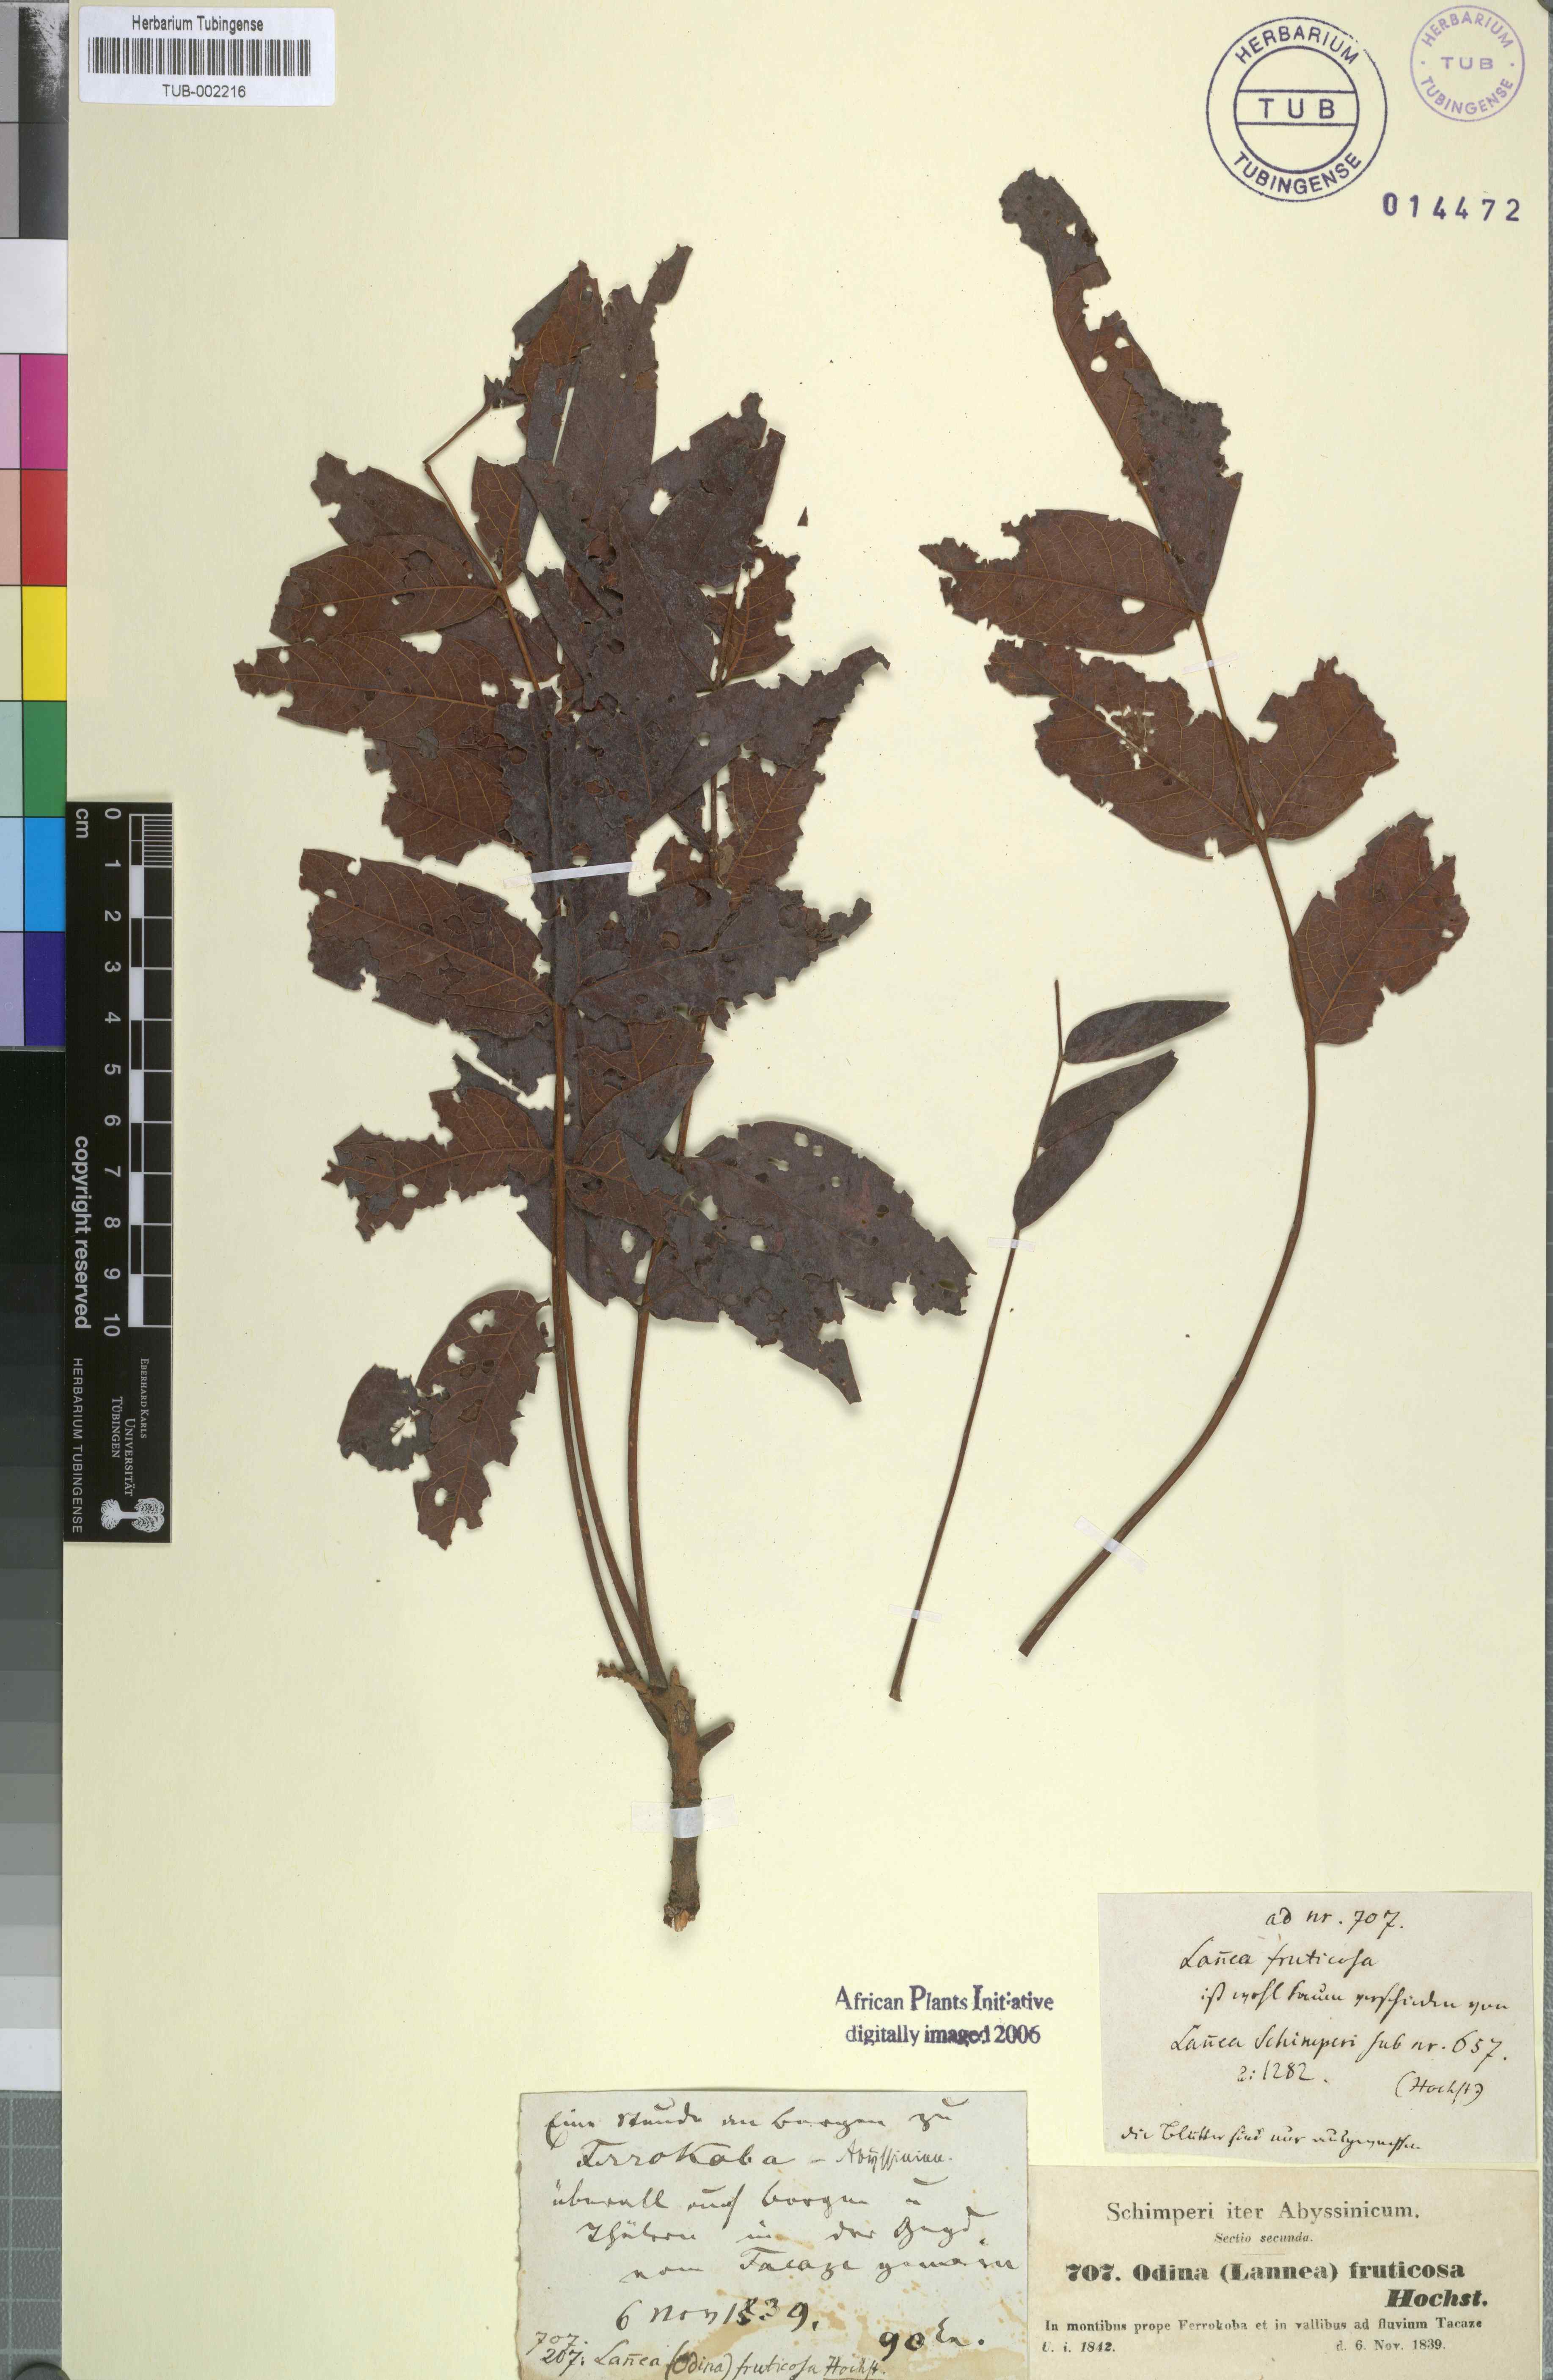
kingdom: Plantae
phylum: Tracheophyta
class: Magnoliopsida
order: Sapindales
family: Anacardiaceae
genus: Lannea
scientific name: Lannea fruticosa
